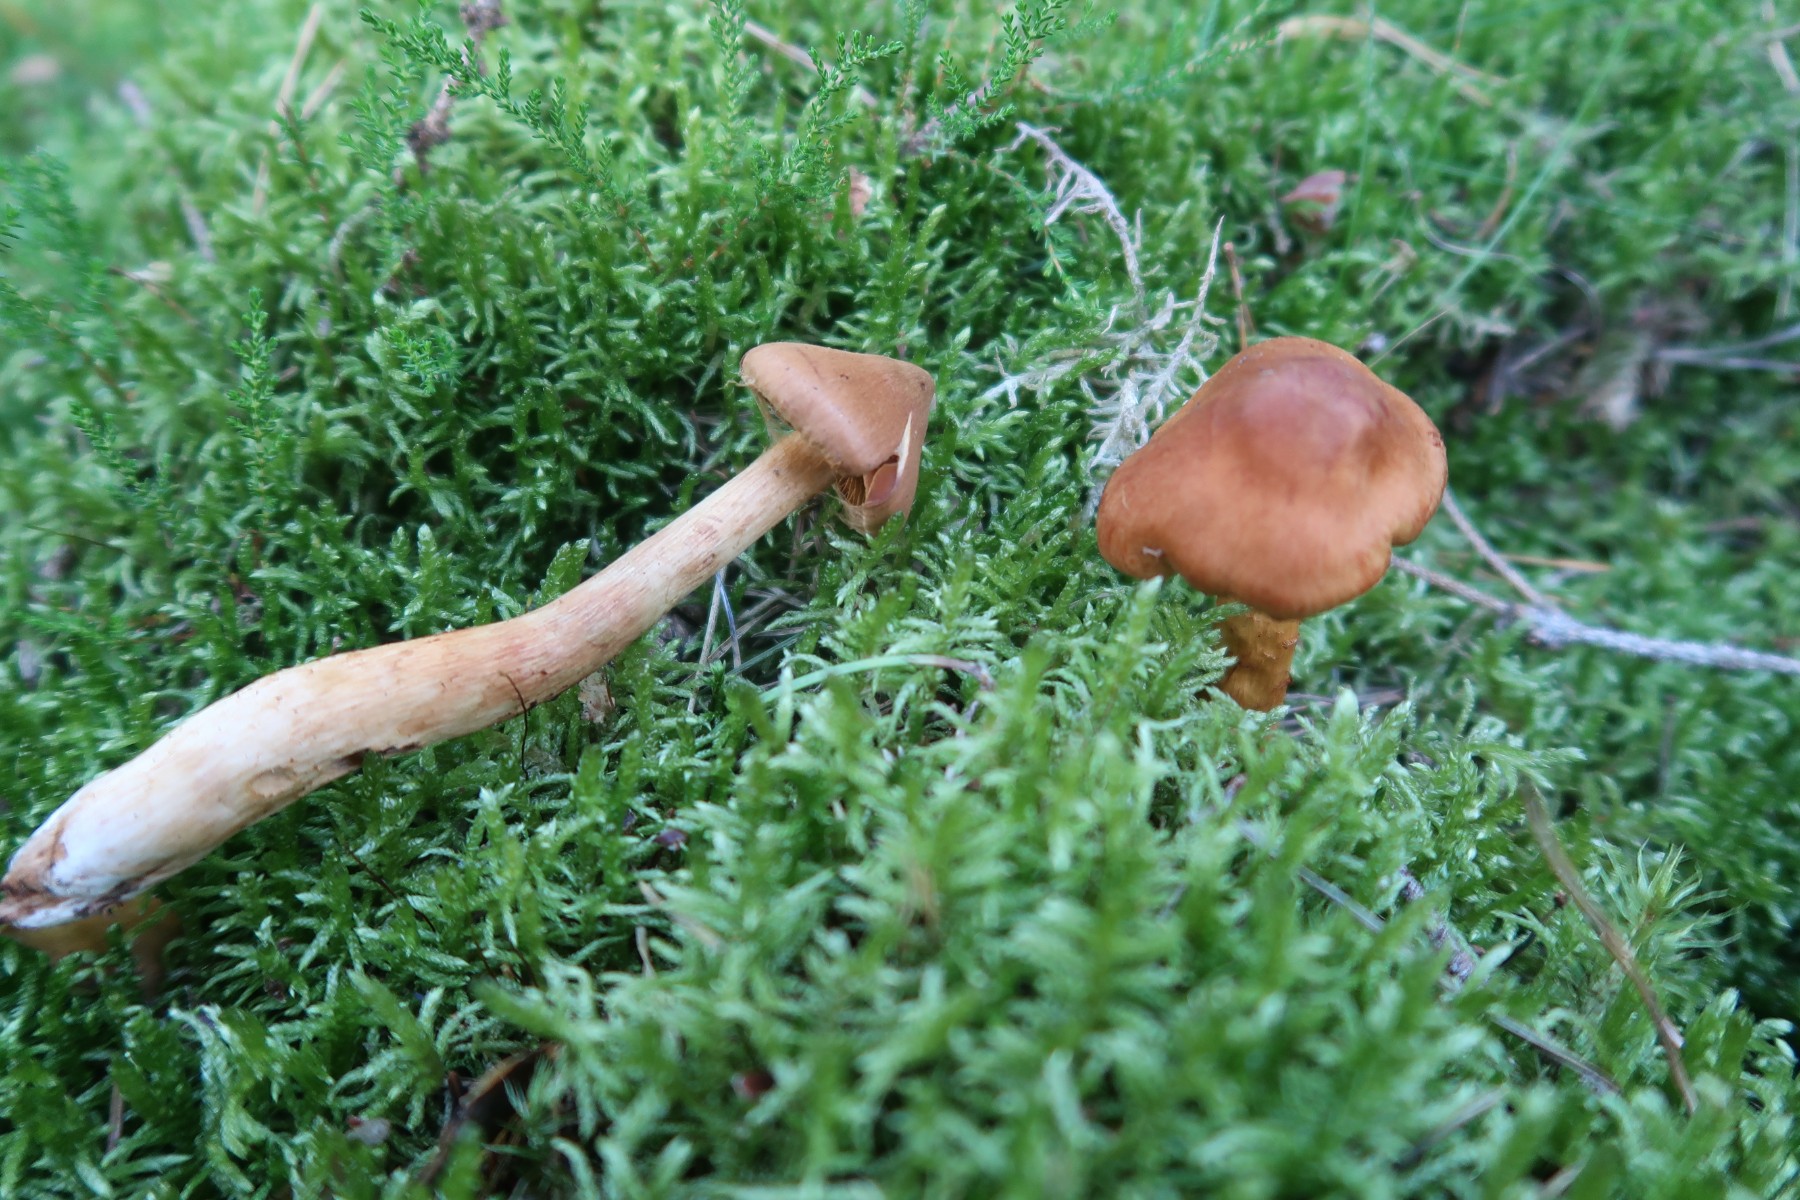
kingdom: Fungi
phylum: Basidiomycota
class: Agaricomycetes
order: Agaricales
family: Cortinariaceae
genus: Cortinarius
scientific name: Cortinarius rubellus
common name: puklet gift-slørhat
